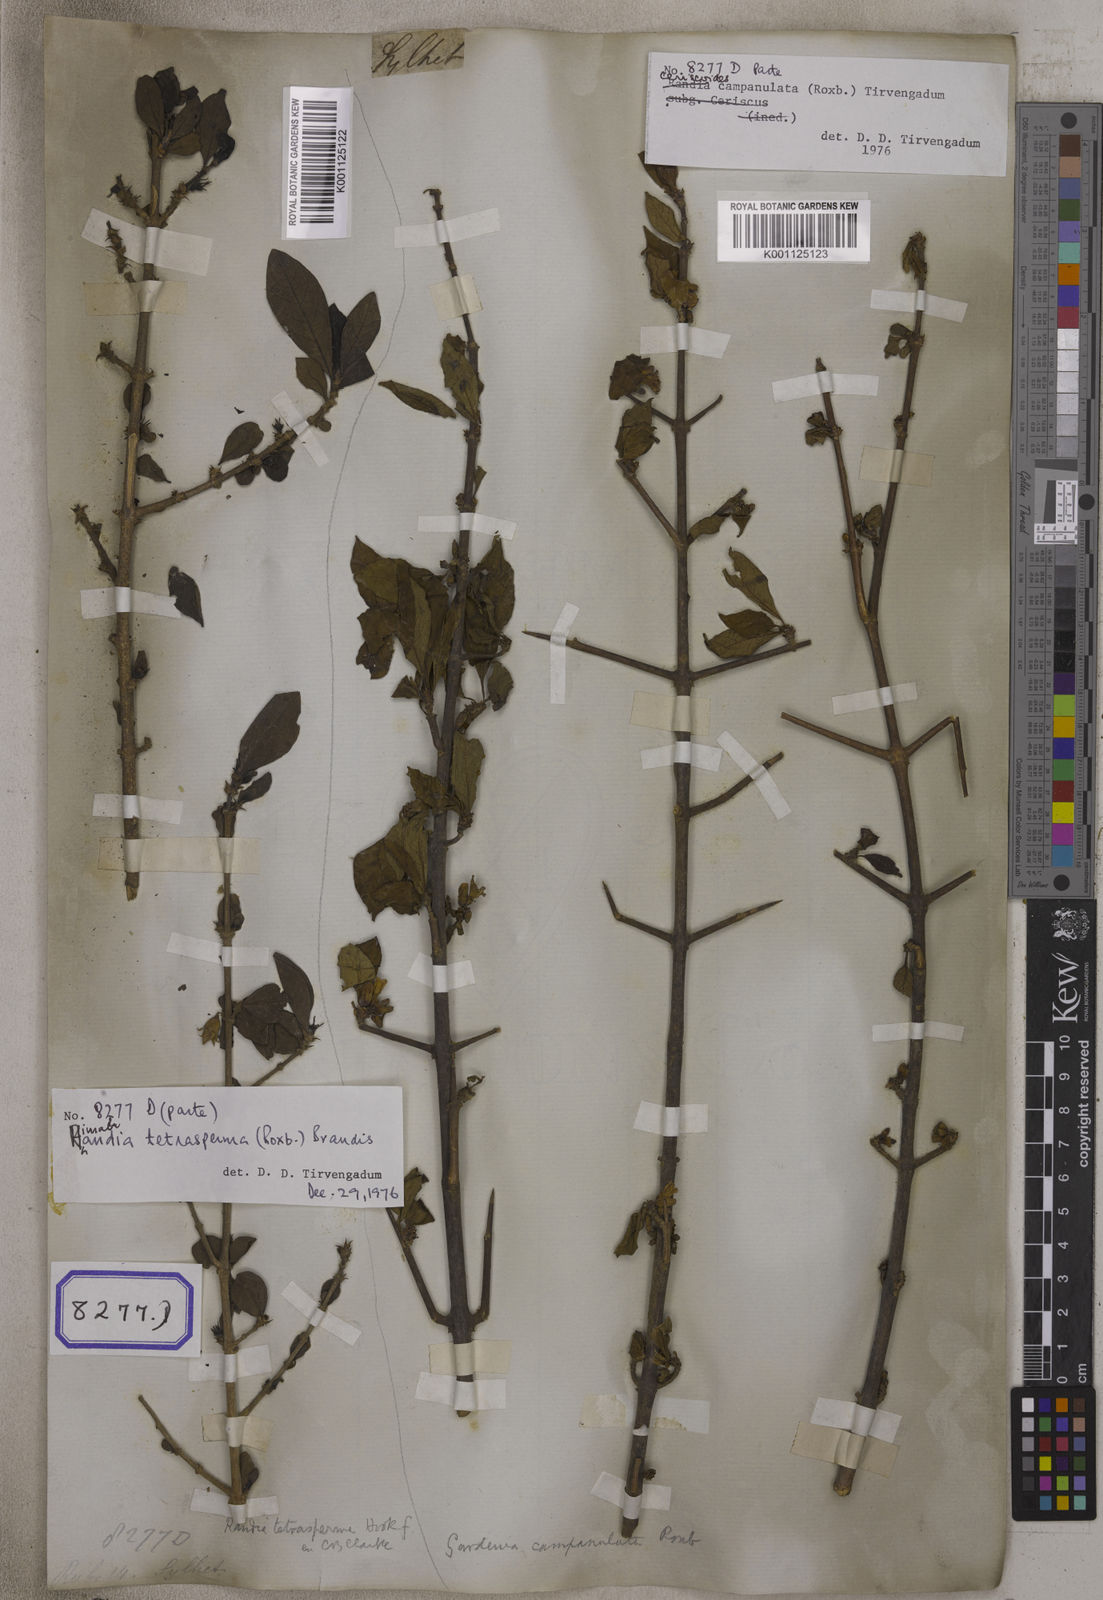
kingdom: Plantae
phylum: Tracheophyta
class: Magnoliopsida
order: Gentianales
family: Rubiaceae
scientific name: Rubiaceae
